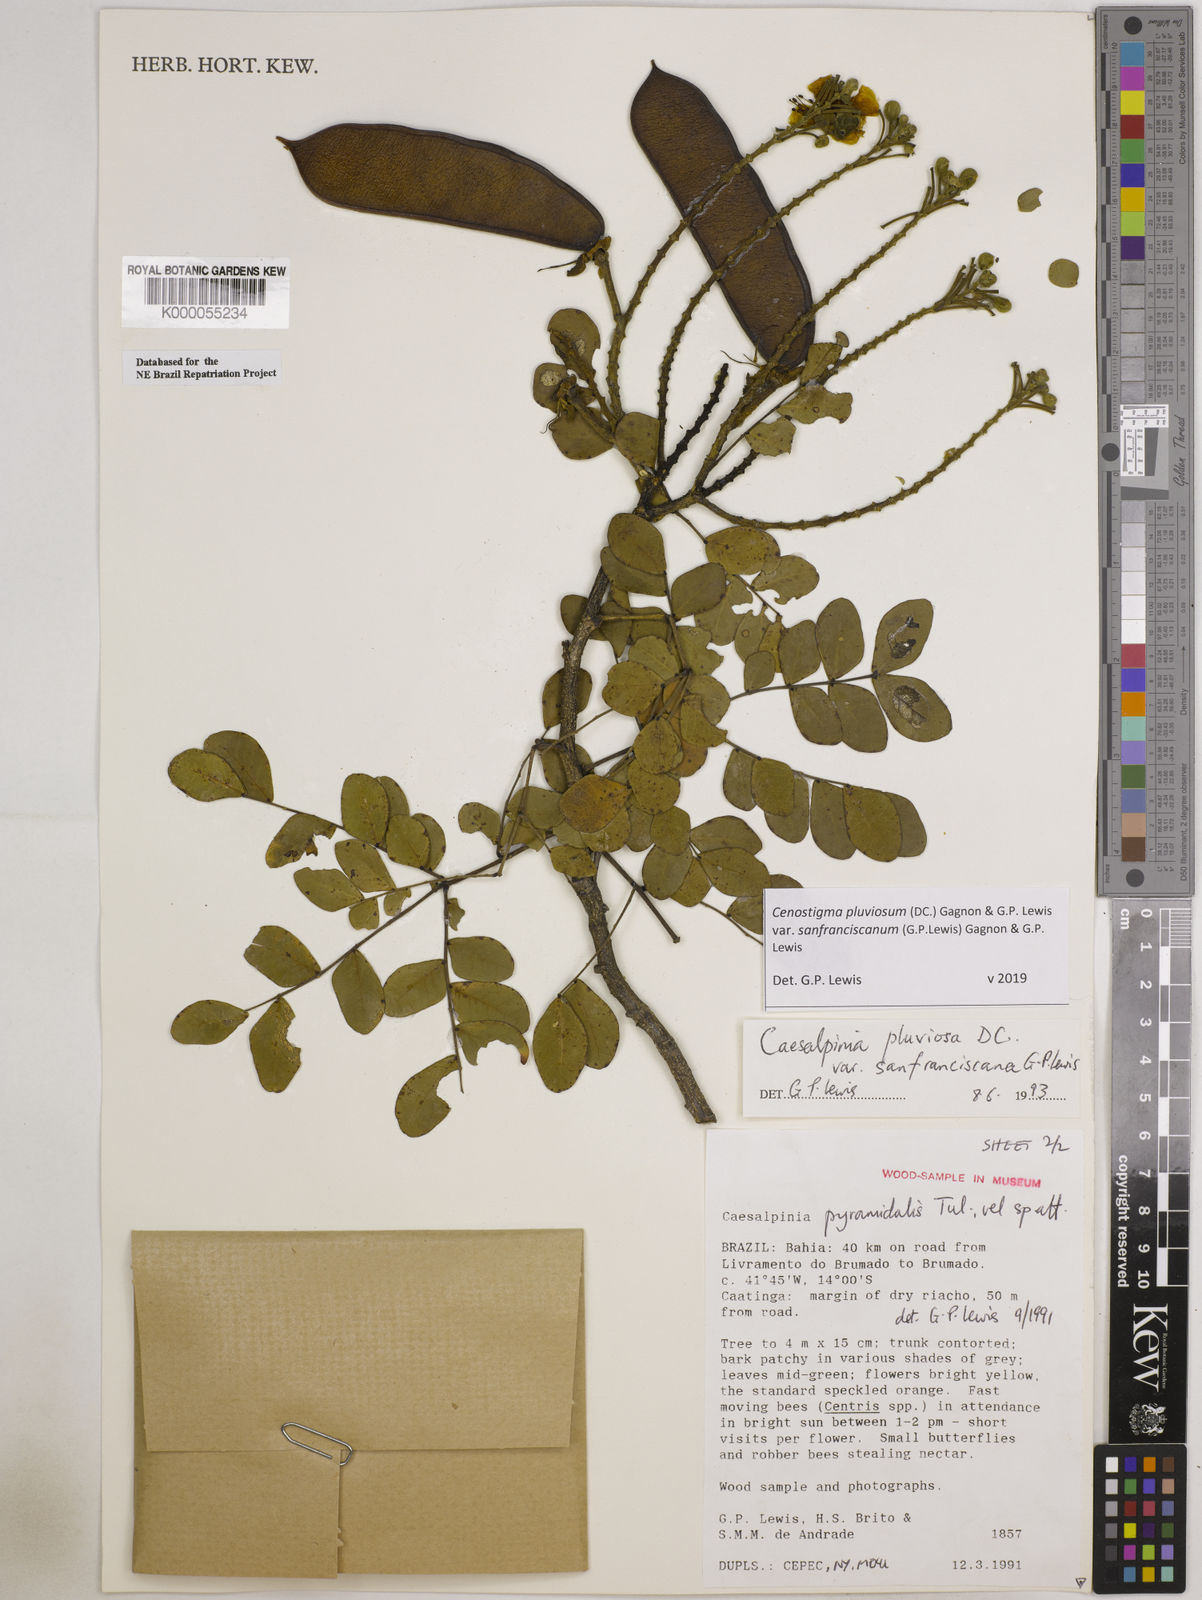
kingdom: Plantae
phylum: Tracheophyta
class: Magnoliopsida
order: Fabales
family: Fabaceae
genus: Cenostigma
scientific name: Cenostigma pluviosum
